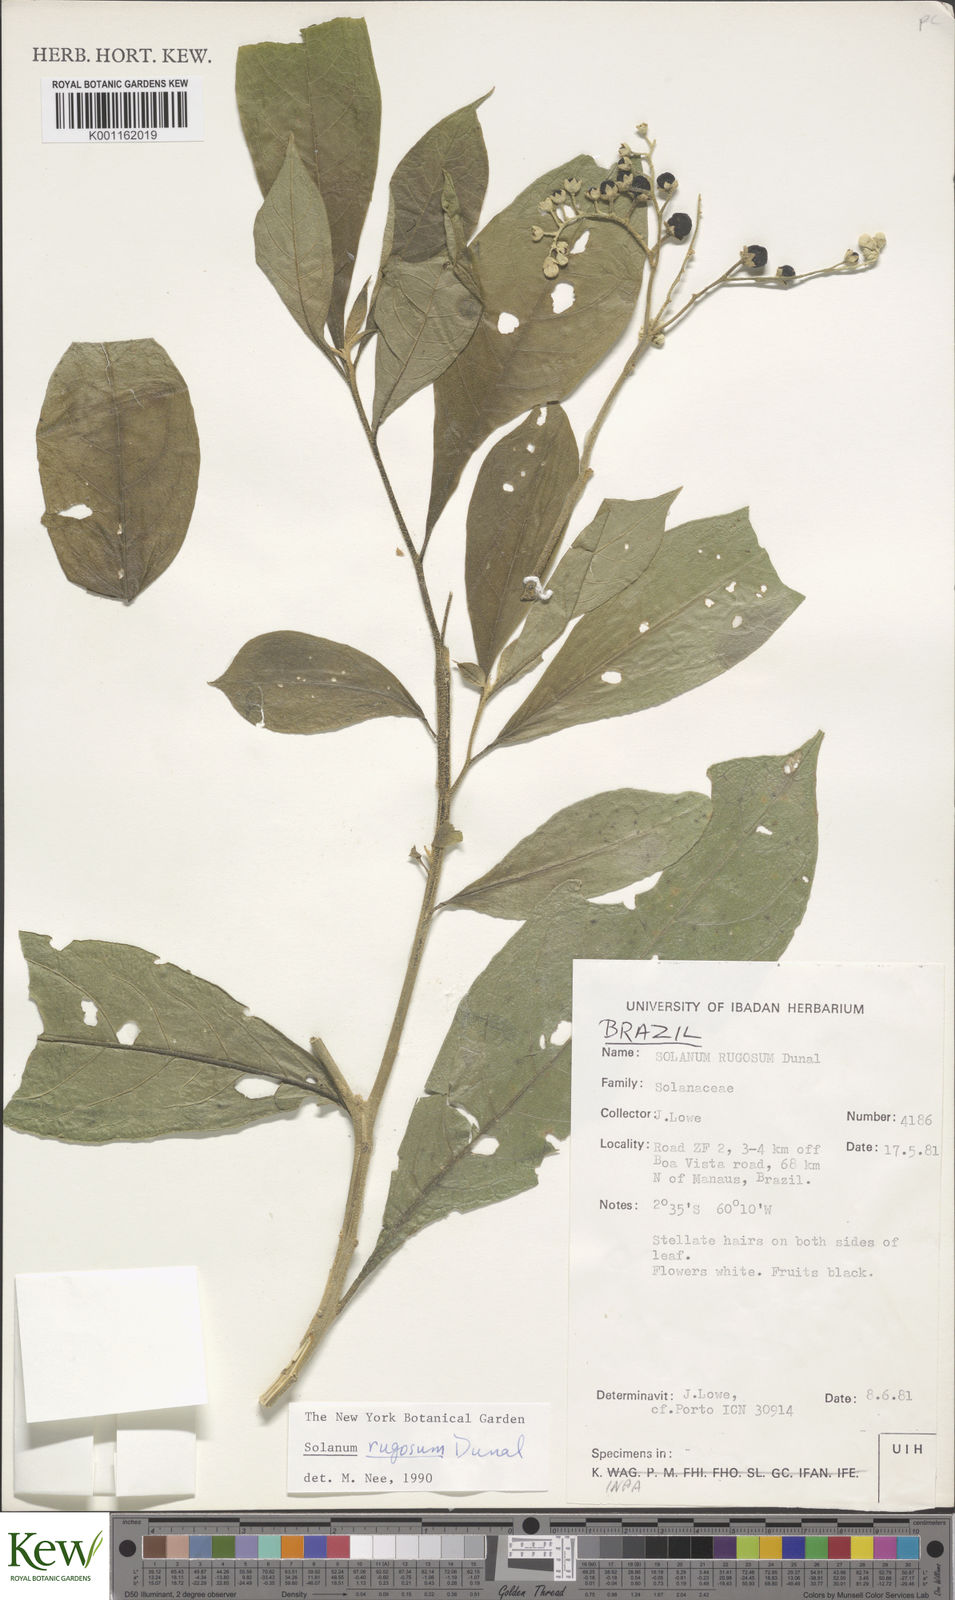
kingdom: Plantae
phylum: Tracheophyta
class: Magnoliopsida
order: Solanales
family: Solanaceae
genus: Solanum
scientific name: Solanum rugosum
